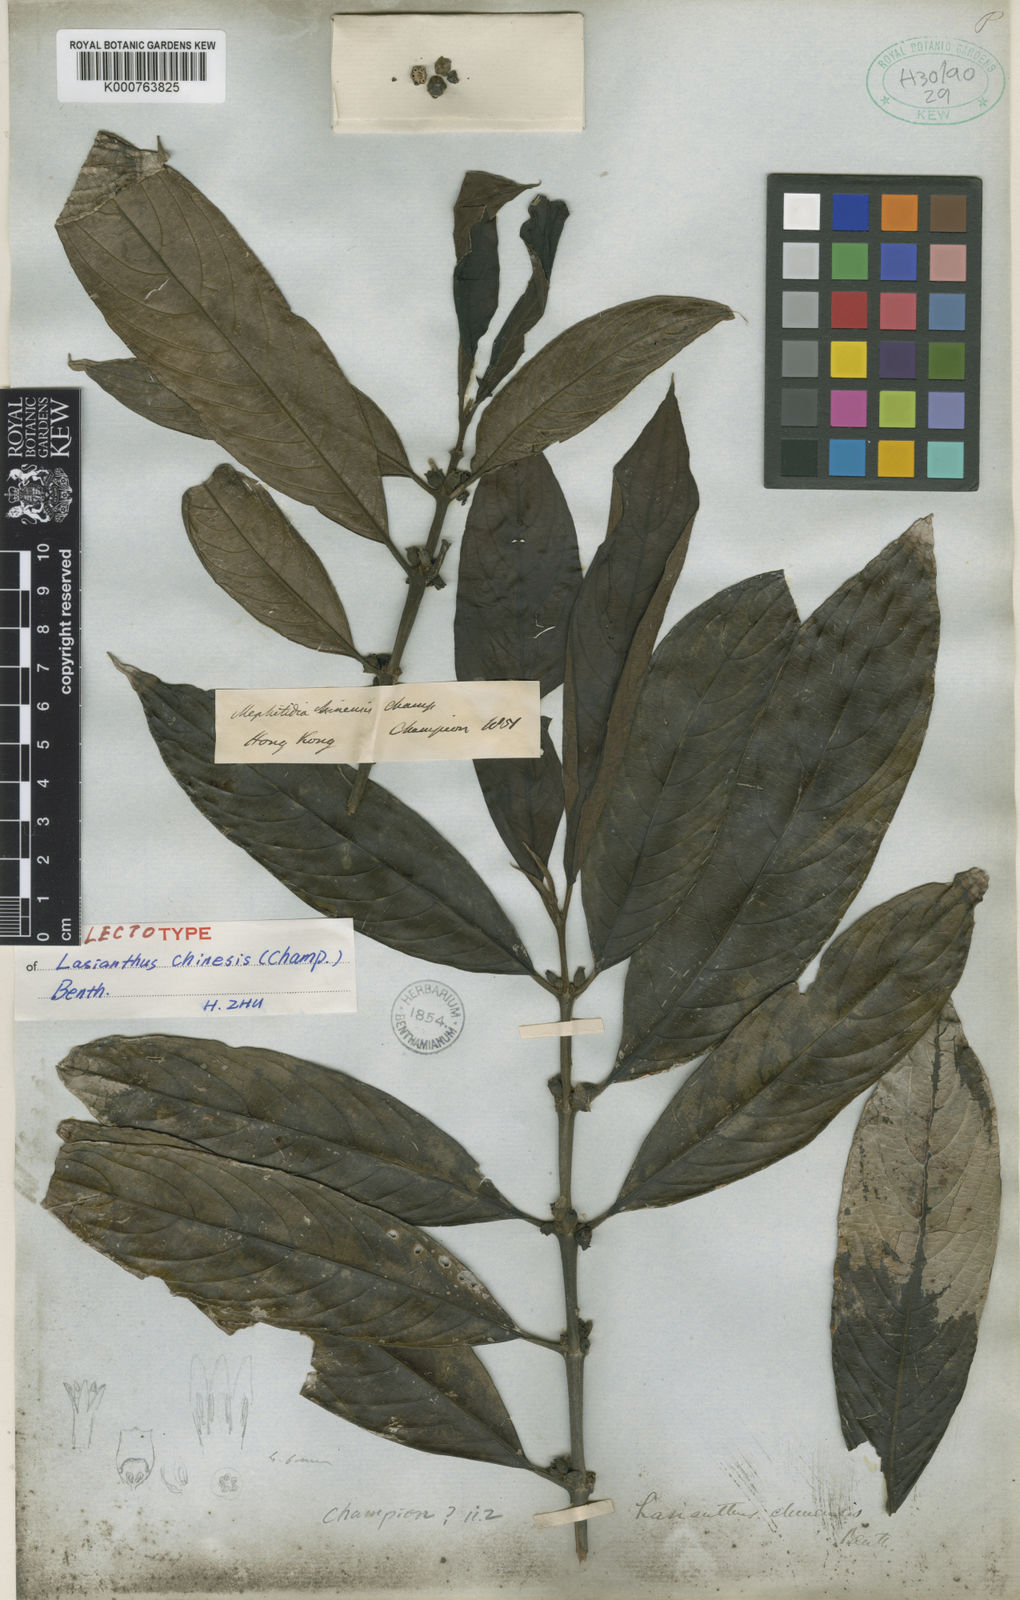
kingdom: Plantae
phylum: Tracheophyta
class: Magnoliopsida
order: Gentianales
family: Rubiaceae
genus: Lasianthus
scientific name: Lasianthus chinensis
